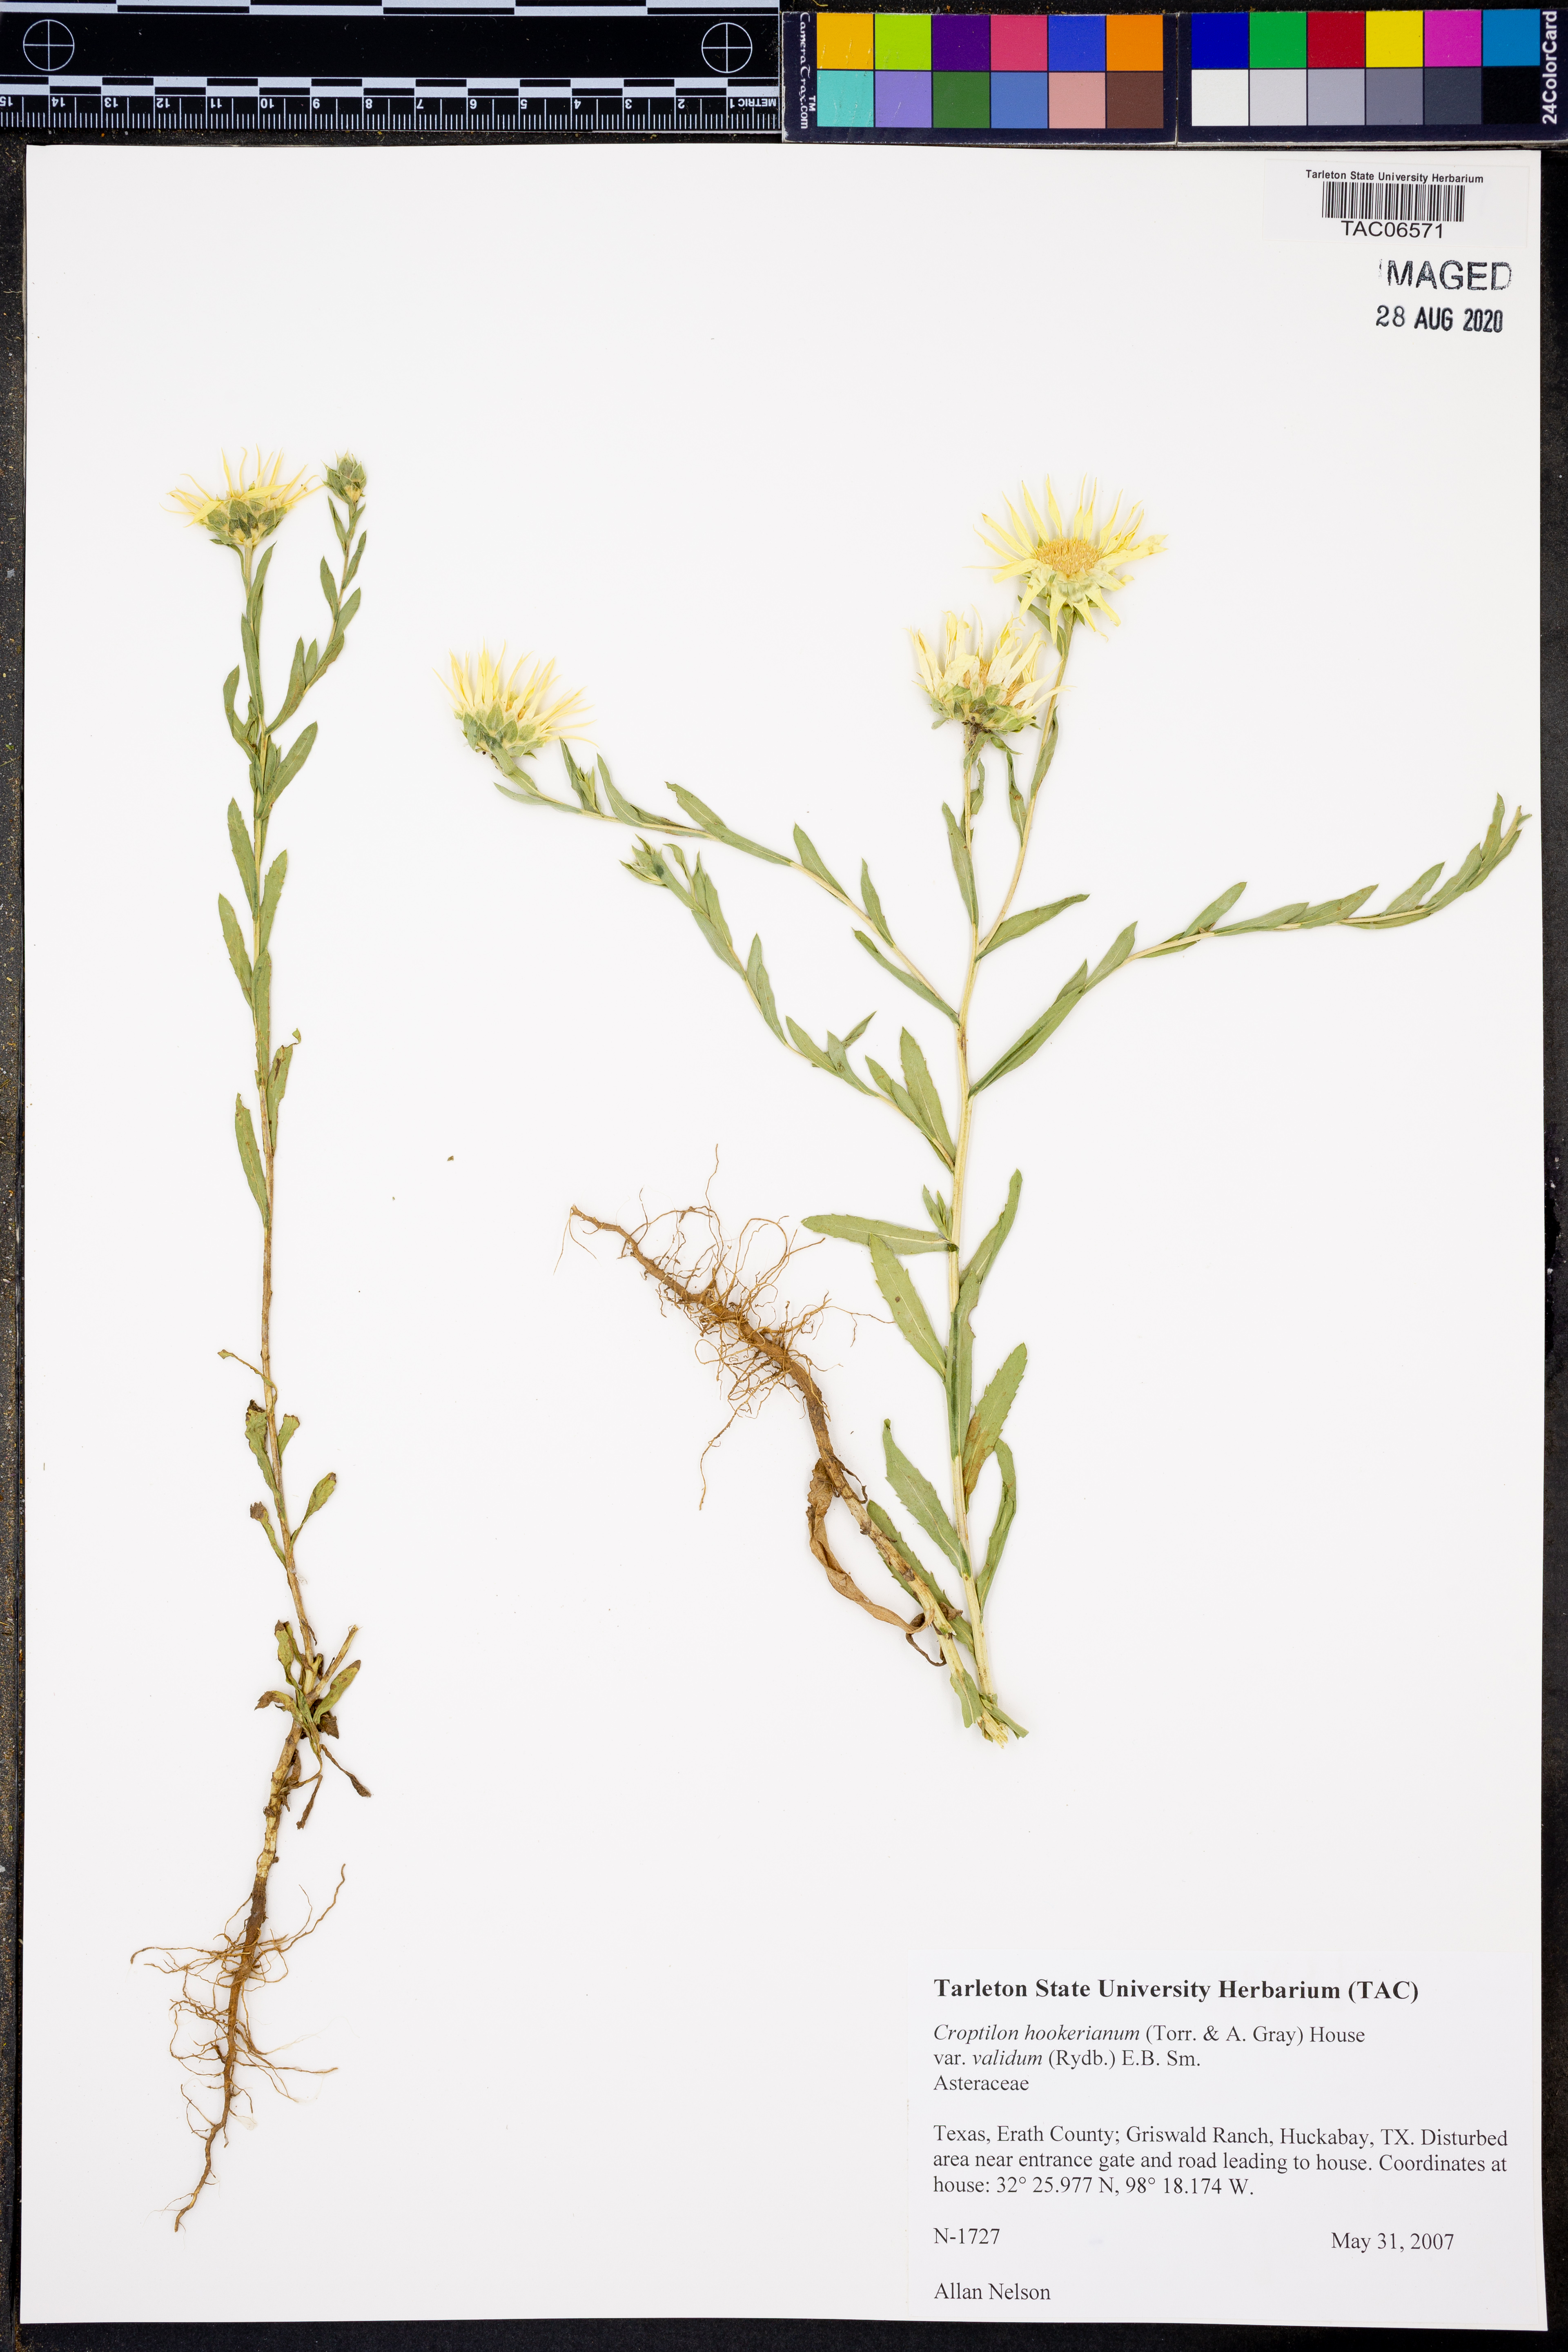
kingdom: Plantae
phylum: Tracheophyta
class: Magnoliopsida
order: Asterales
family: Asteraceae
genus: Croptilon
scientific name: Croptilon hookerianum
